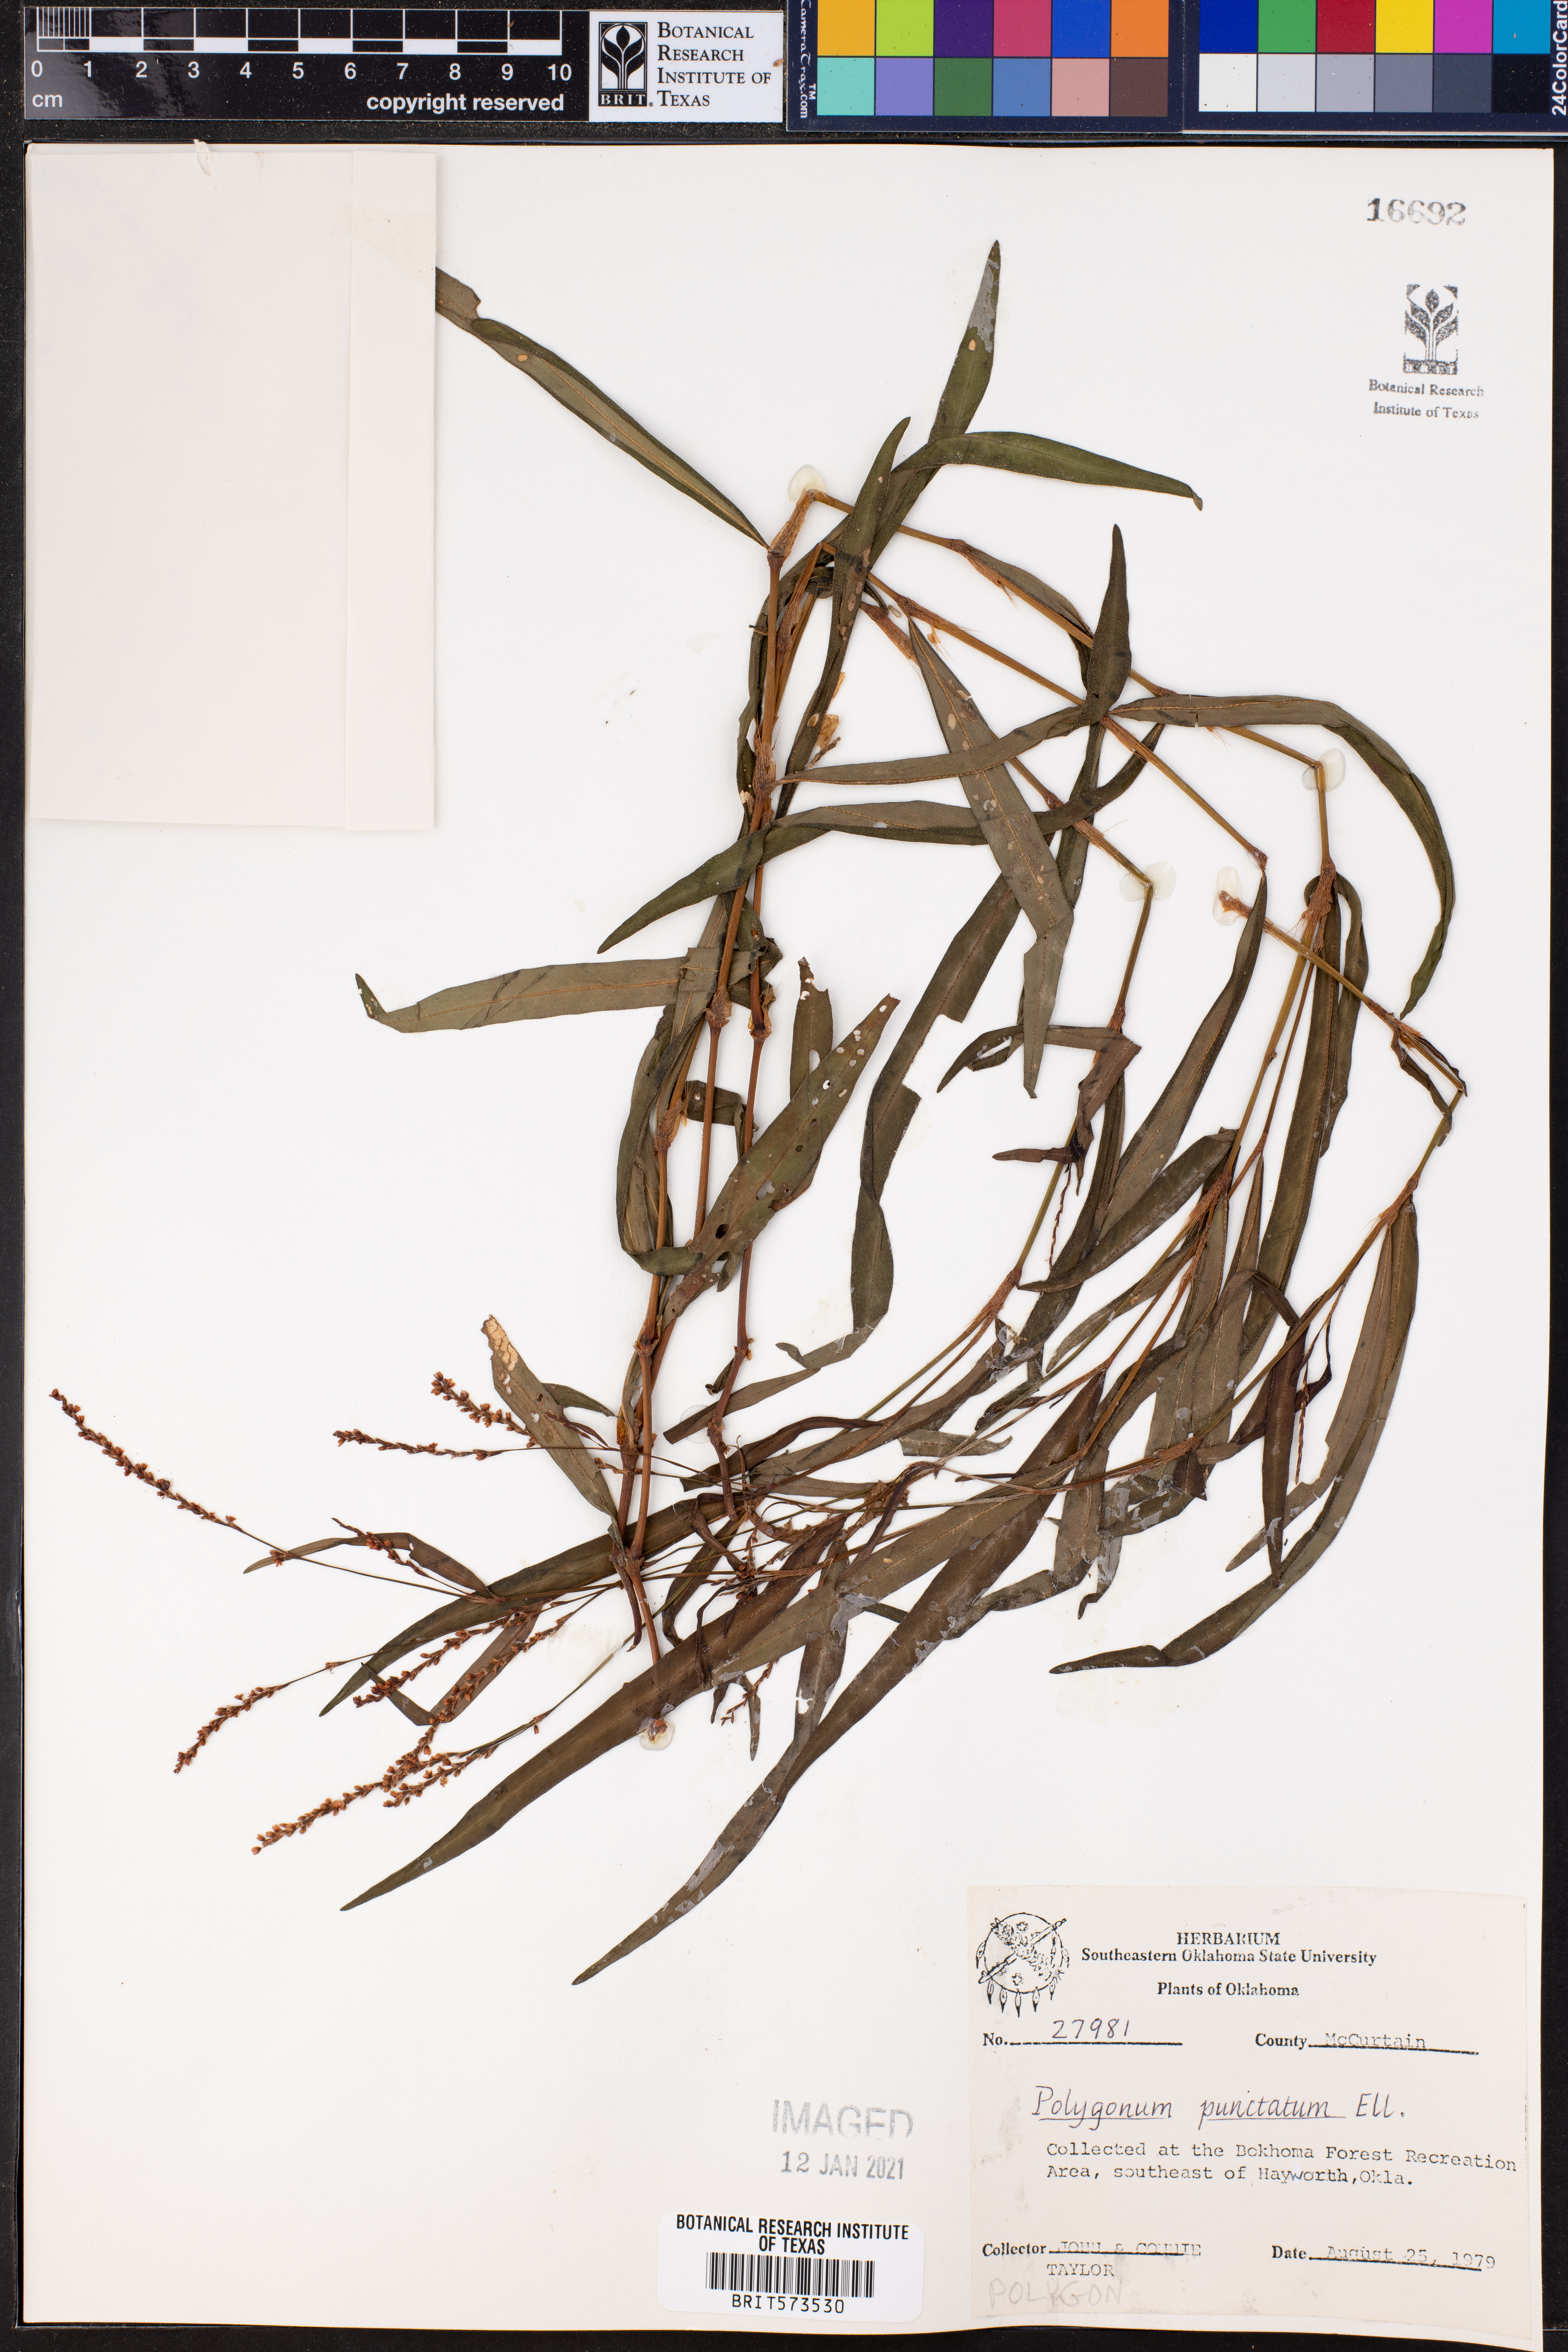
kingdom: Plantae
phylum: Tracheophyta
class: Magnoliopsida
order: Caryophyllales
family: Polygonaceae
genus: Persicaria
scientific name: Persicaria punctata
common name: Dotted smartweed
